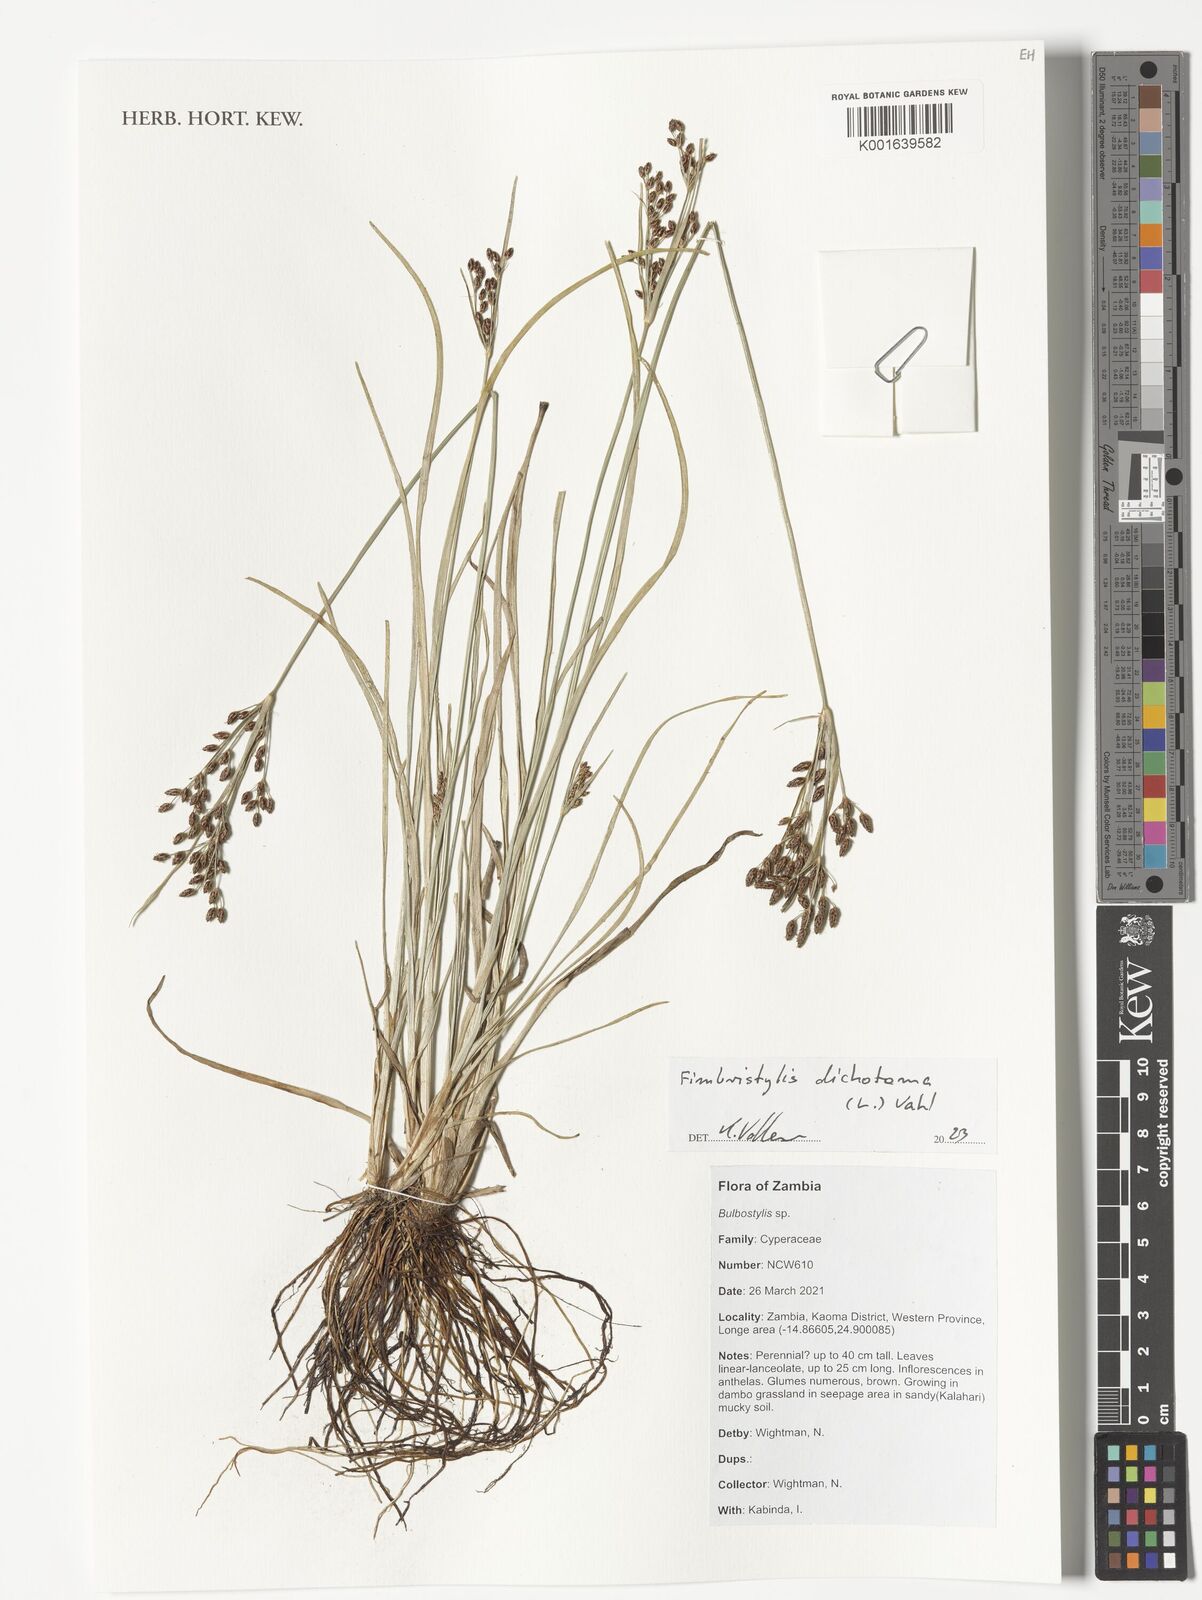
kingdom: Plantae
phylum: Tracheophyta
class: Liliopsida
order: Poales
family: Cyperaceae
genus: Fimbristylis
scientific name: Fimbristylis dichotoma
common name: Forked fimbry
